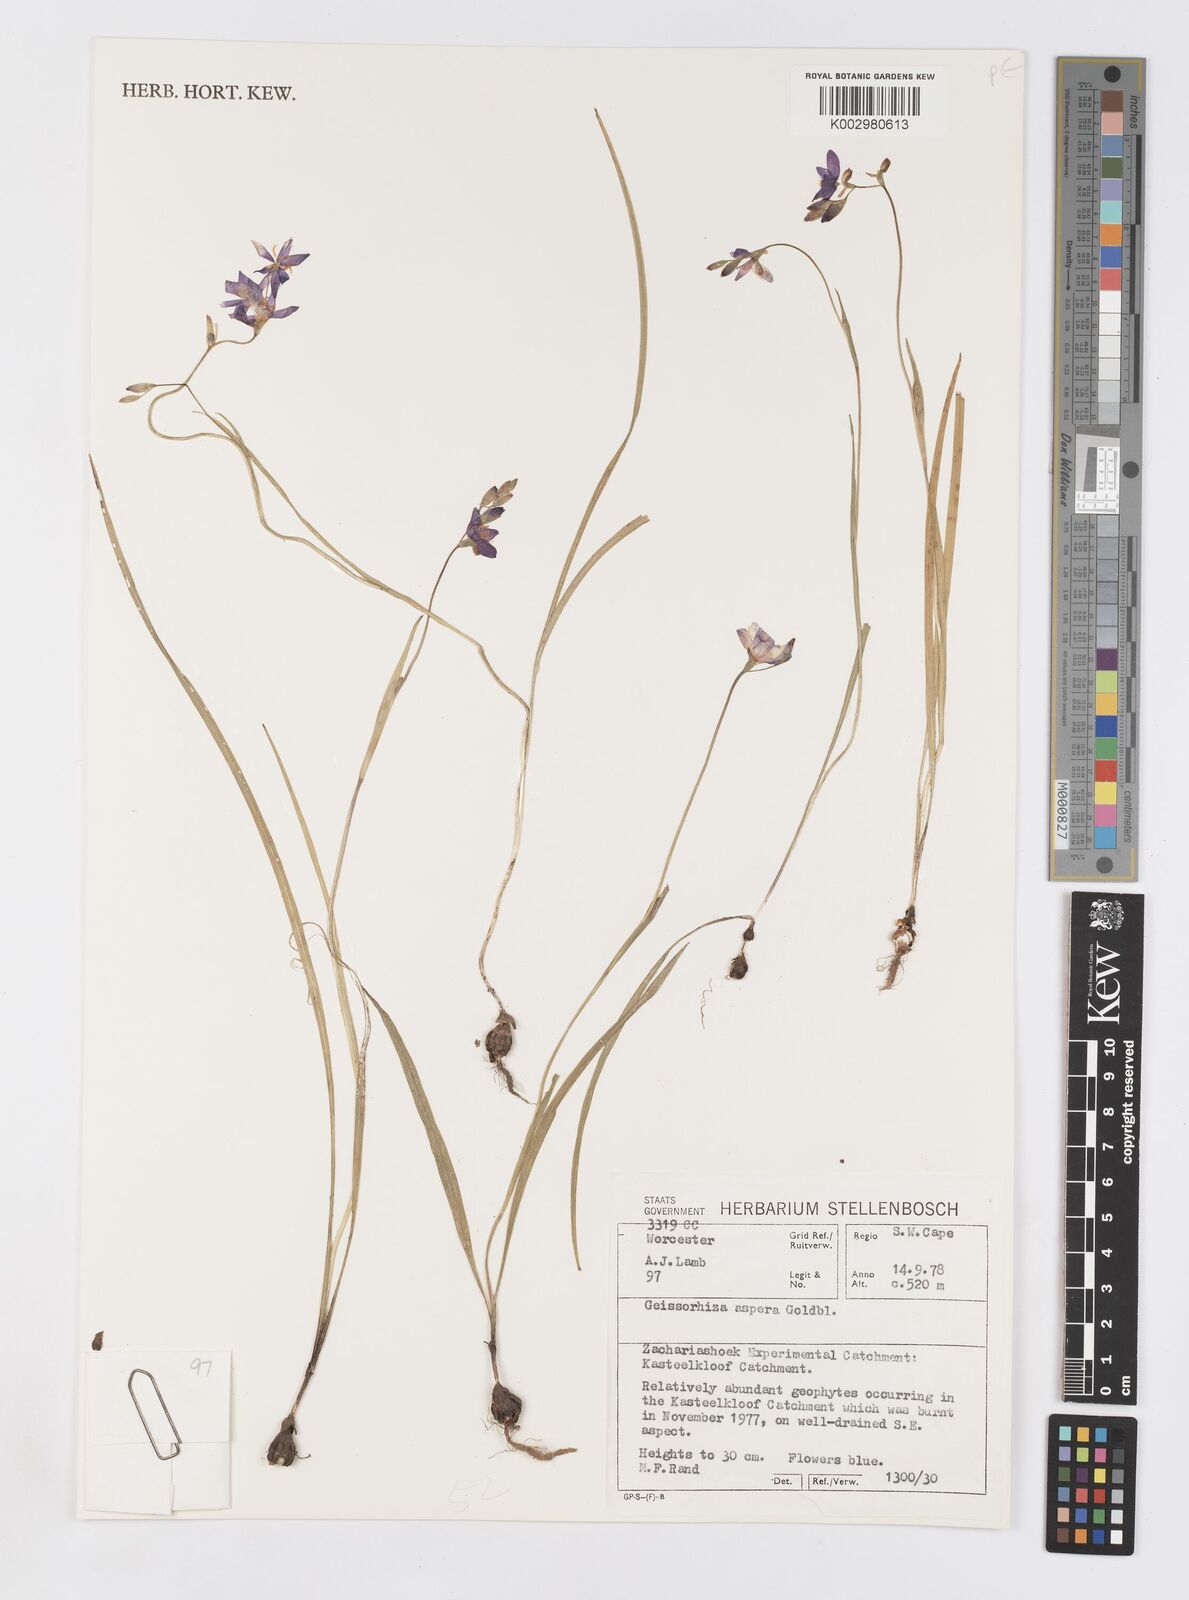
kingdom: Plantae
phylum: Tracheophyta
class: Liliopsida
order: Asparagales
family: Iridaceae
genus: Geissorhiza
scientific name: Geissorhiza aspera
